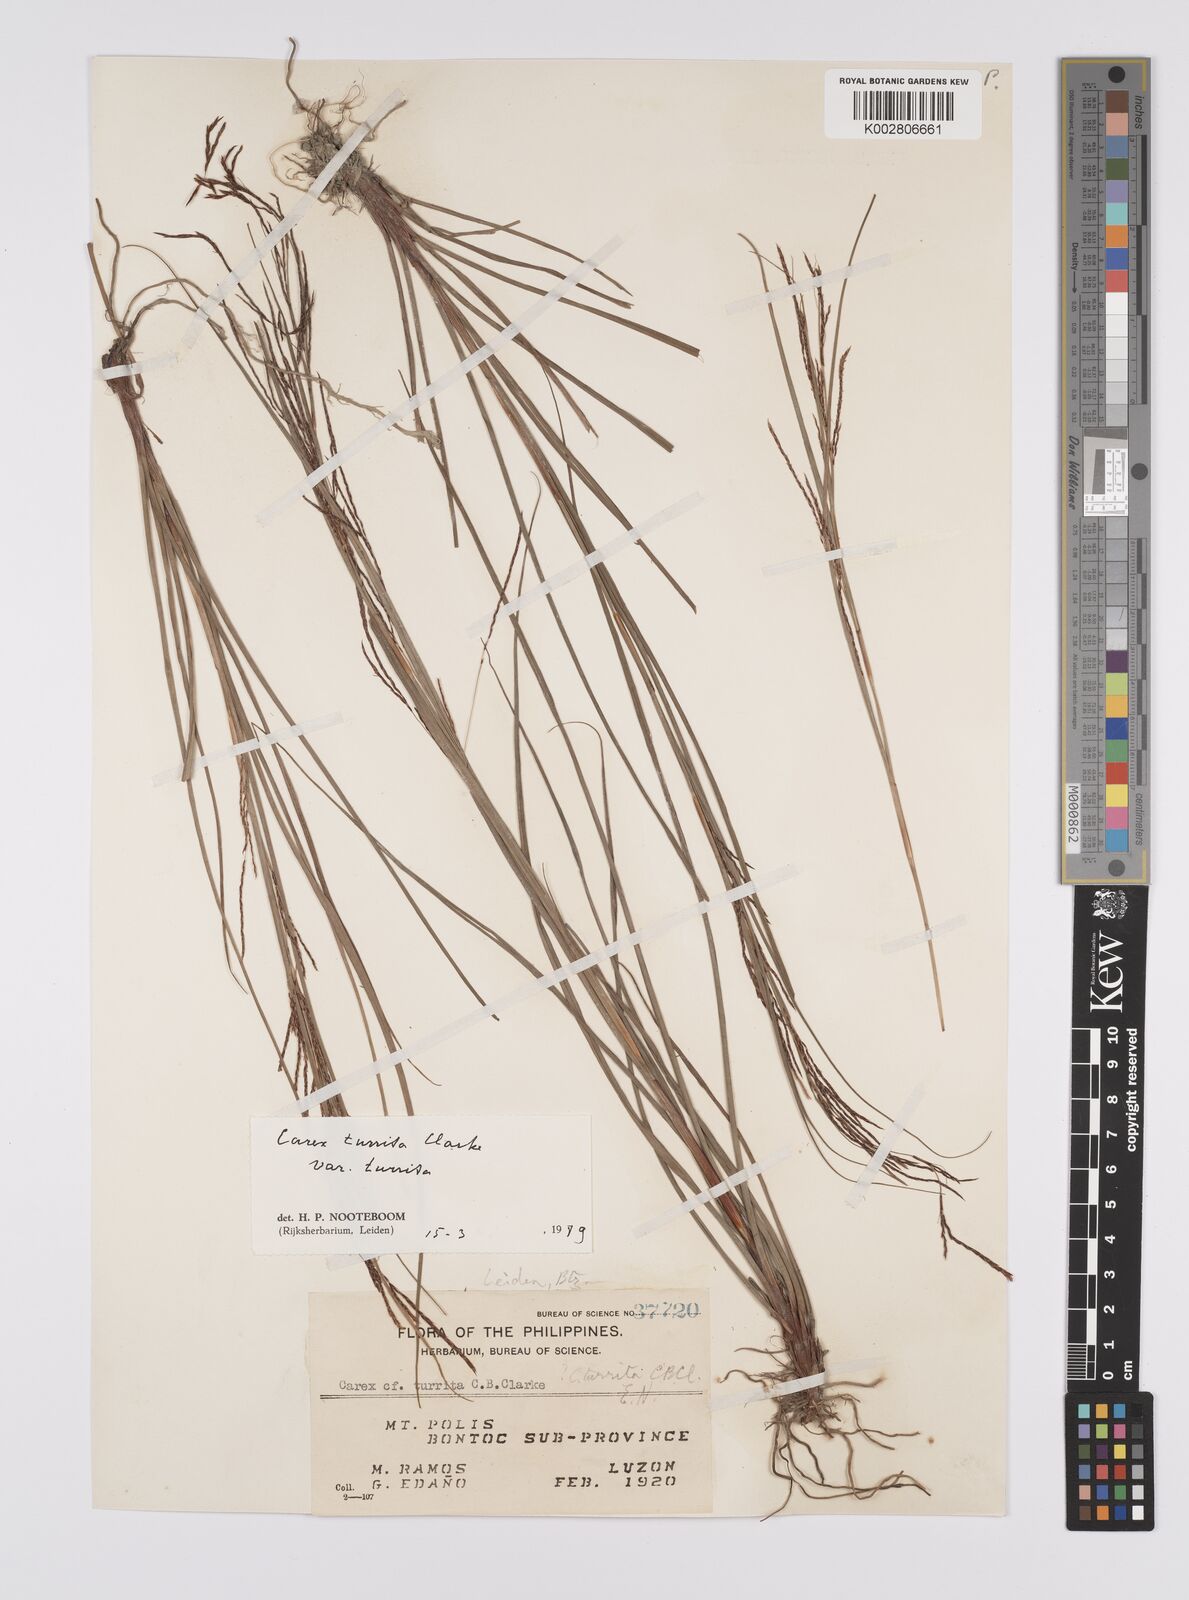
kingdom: Plantae
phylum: Tracheophyta
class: Liliopsida
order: Poales
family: Cyperaceae
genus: Carex
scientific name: Carex turrita
